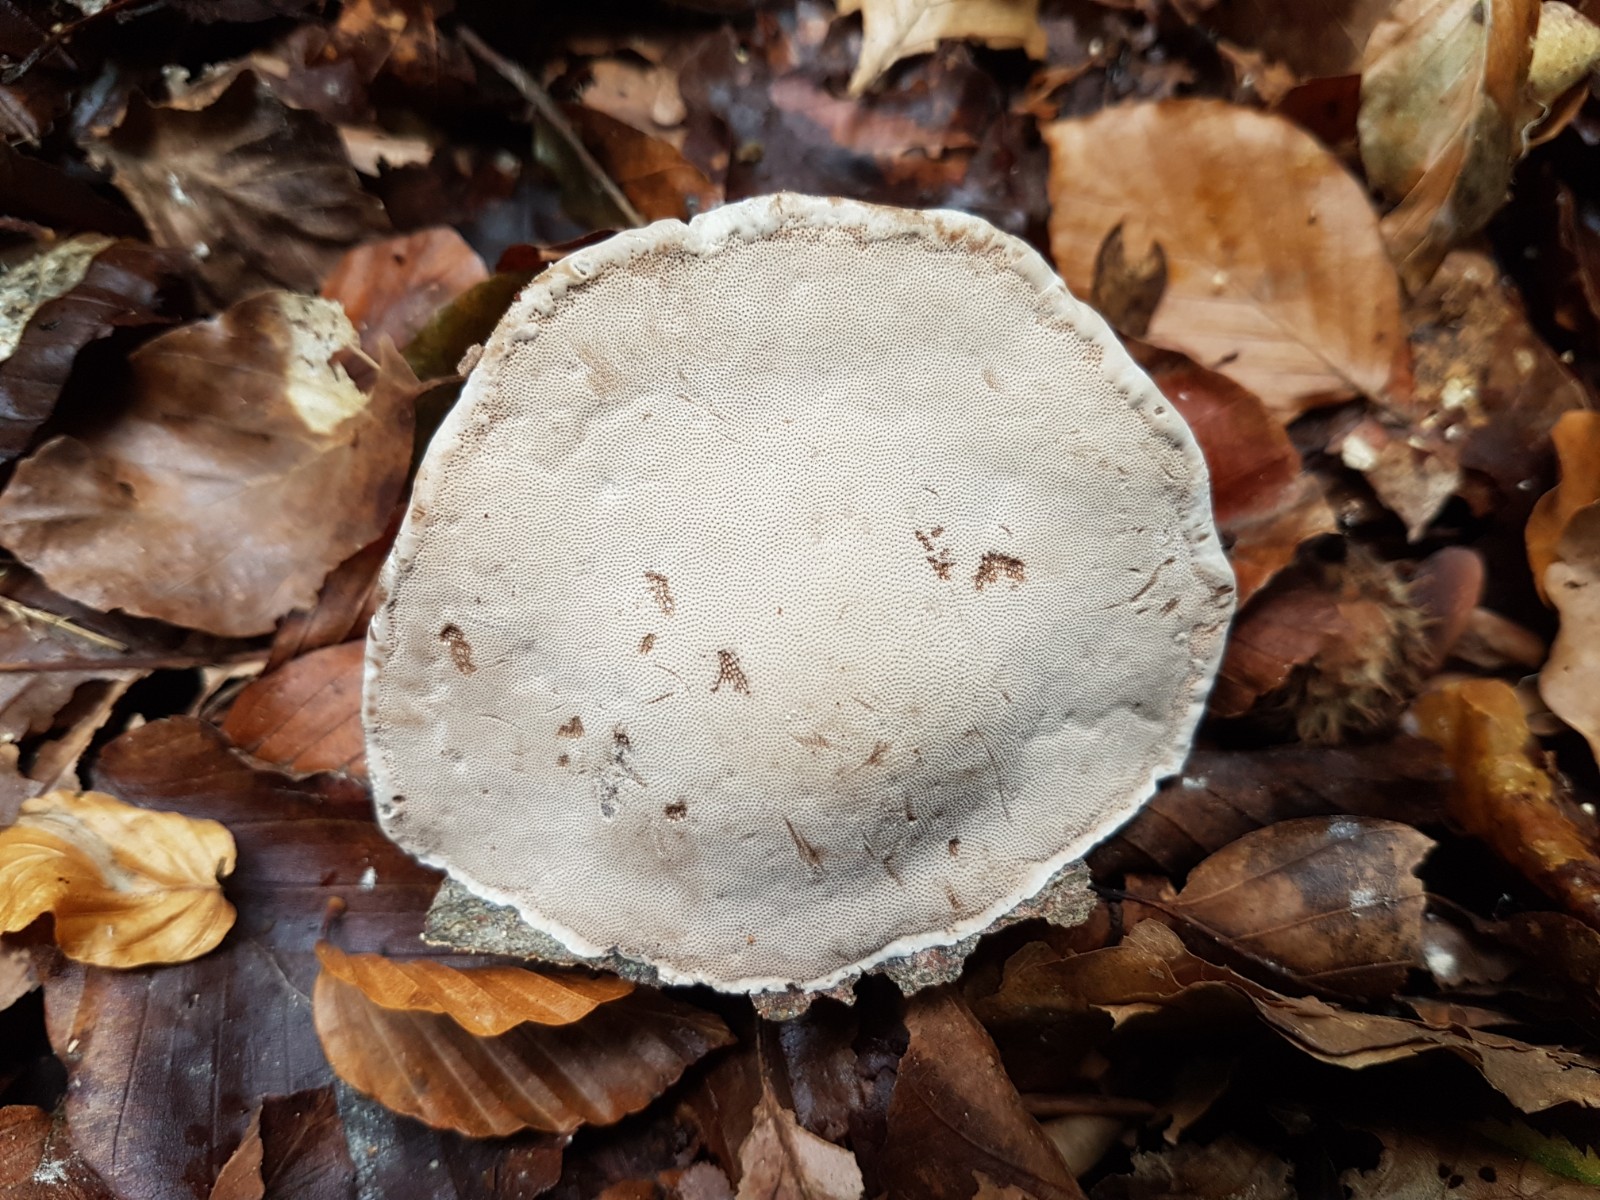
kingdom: Fungi
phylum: Basidiomycota
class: Agaricomycetes
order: Polyporales
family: Polyporaceae
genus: Fomes
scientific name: Fomes fomentarius
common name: tøndersvamp
